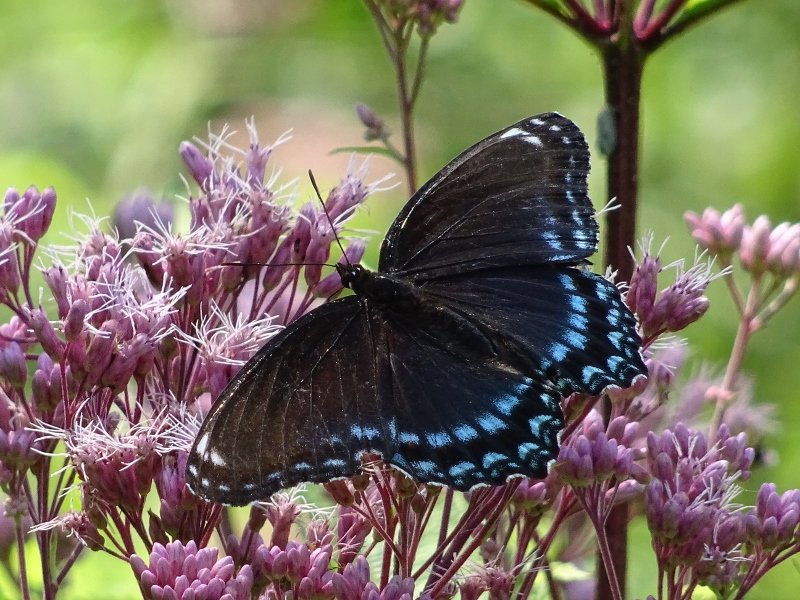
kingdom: Animalia
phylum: Arthropoda
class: Insecta
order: Lepidoptera
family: Nymphalidae
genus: Limenitis
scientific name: Limenitis astyanax
